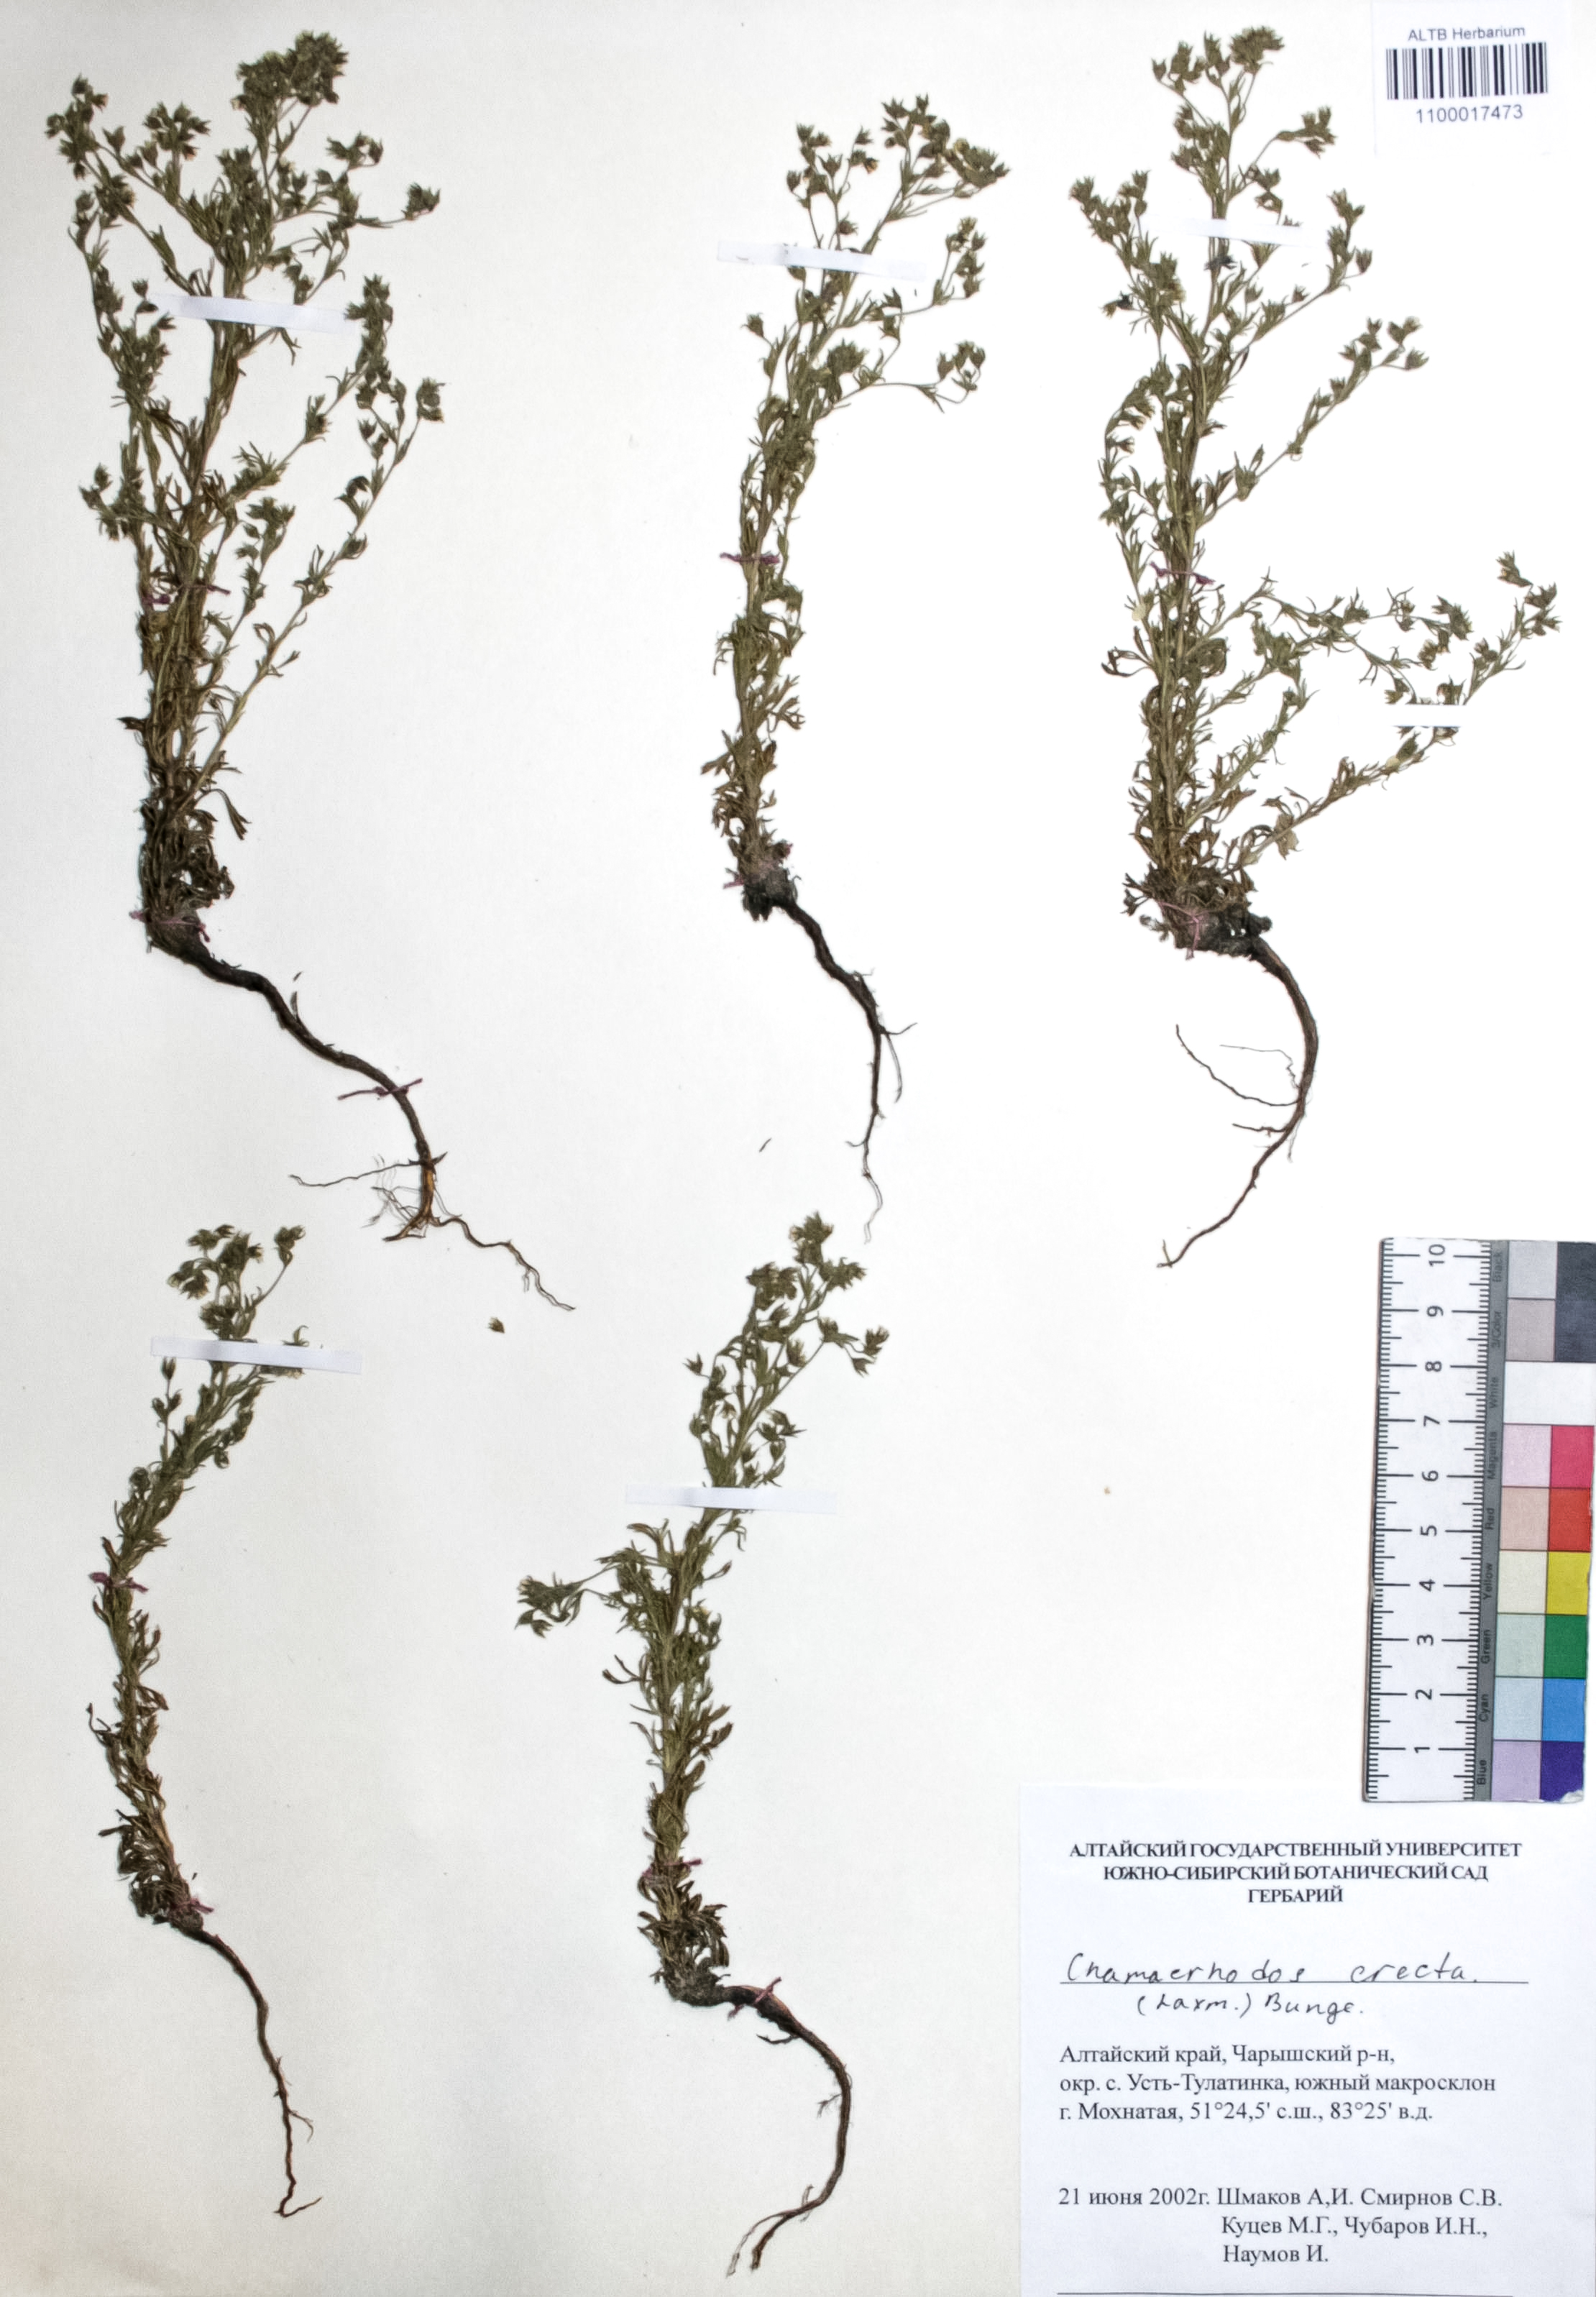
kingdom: Plantae
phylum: Tracheophyta
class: Magnoliopsida
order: Rosales
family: Rosaceae
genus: Chamaerhodos
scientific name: Chamaerhodos erecta
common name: American chamaerhodos
